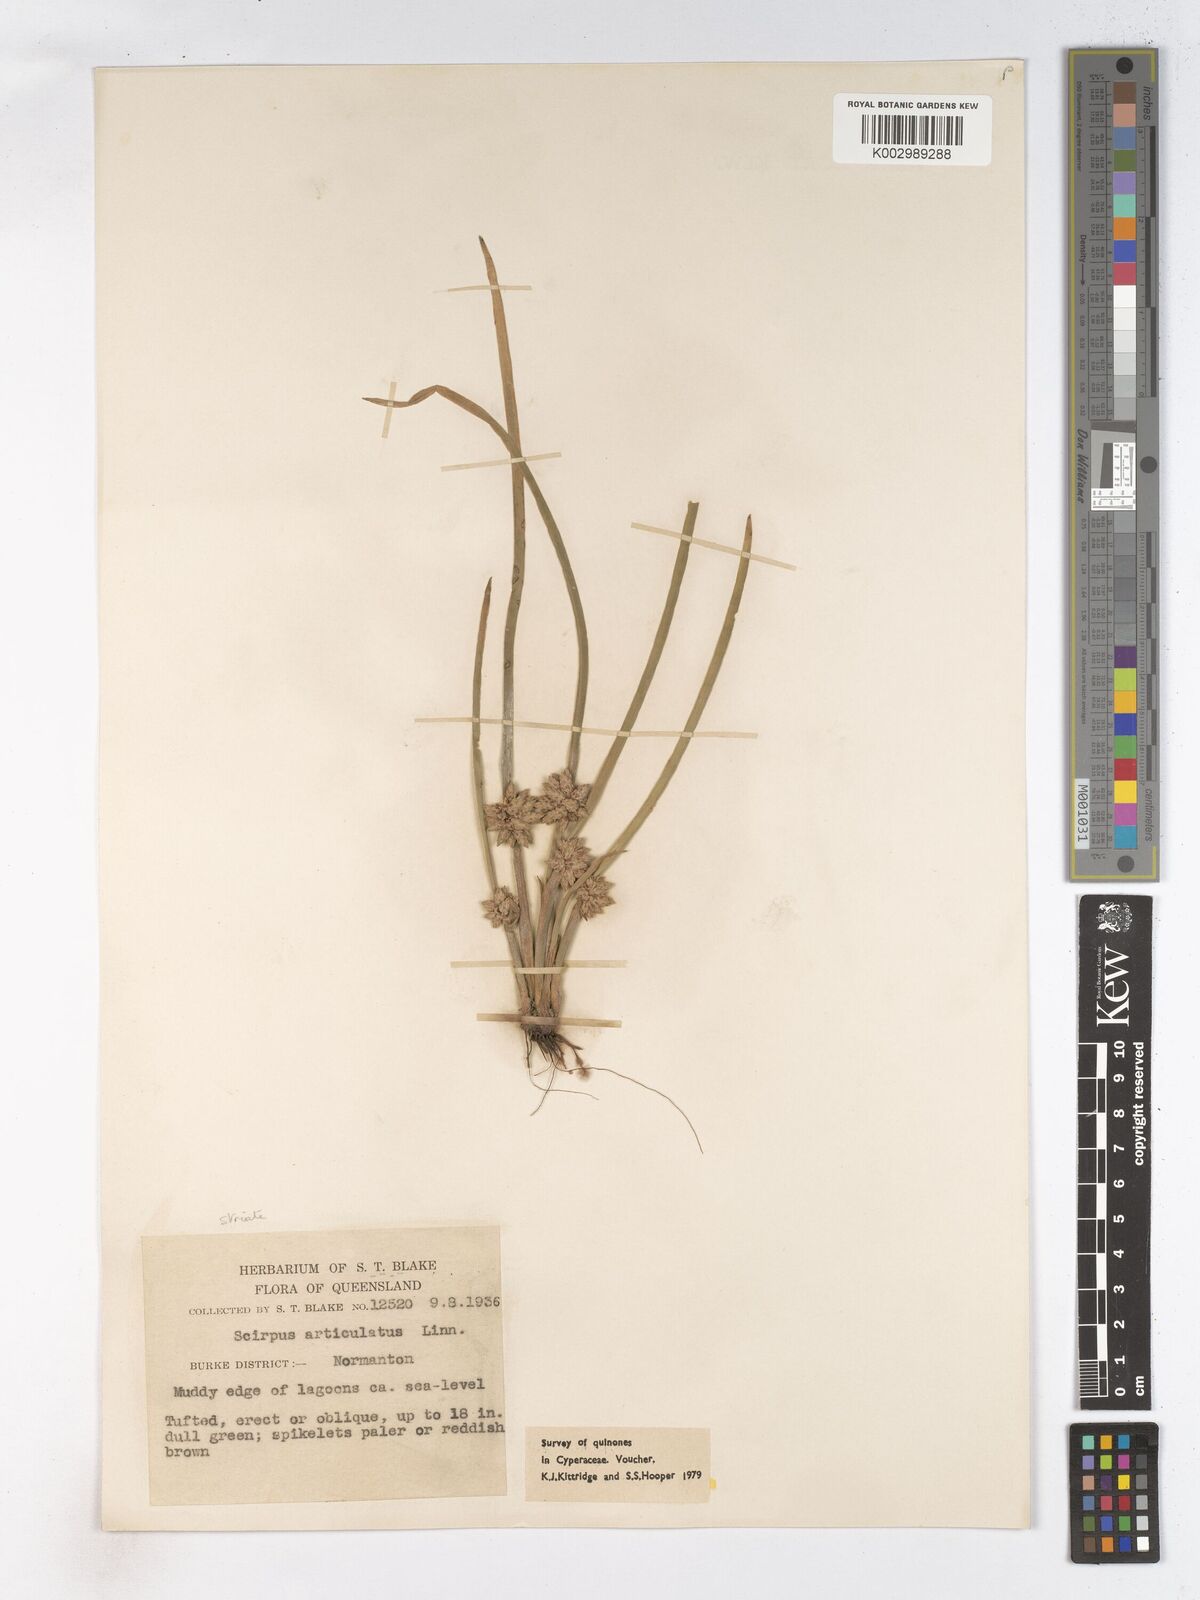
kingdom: Plantae
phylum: Tracheophyta
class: Liliopsida
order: Poales
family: Cyperaceae
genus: Schoenoplectiella
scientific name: Schoenoplectiella articulata
